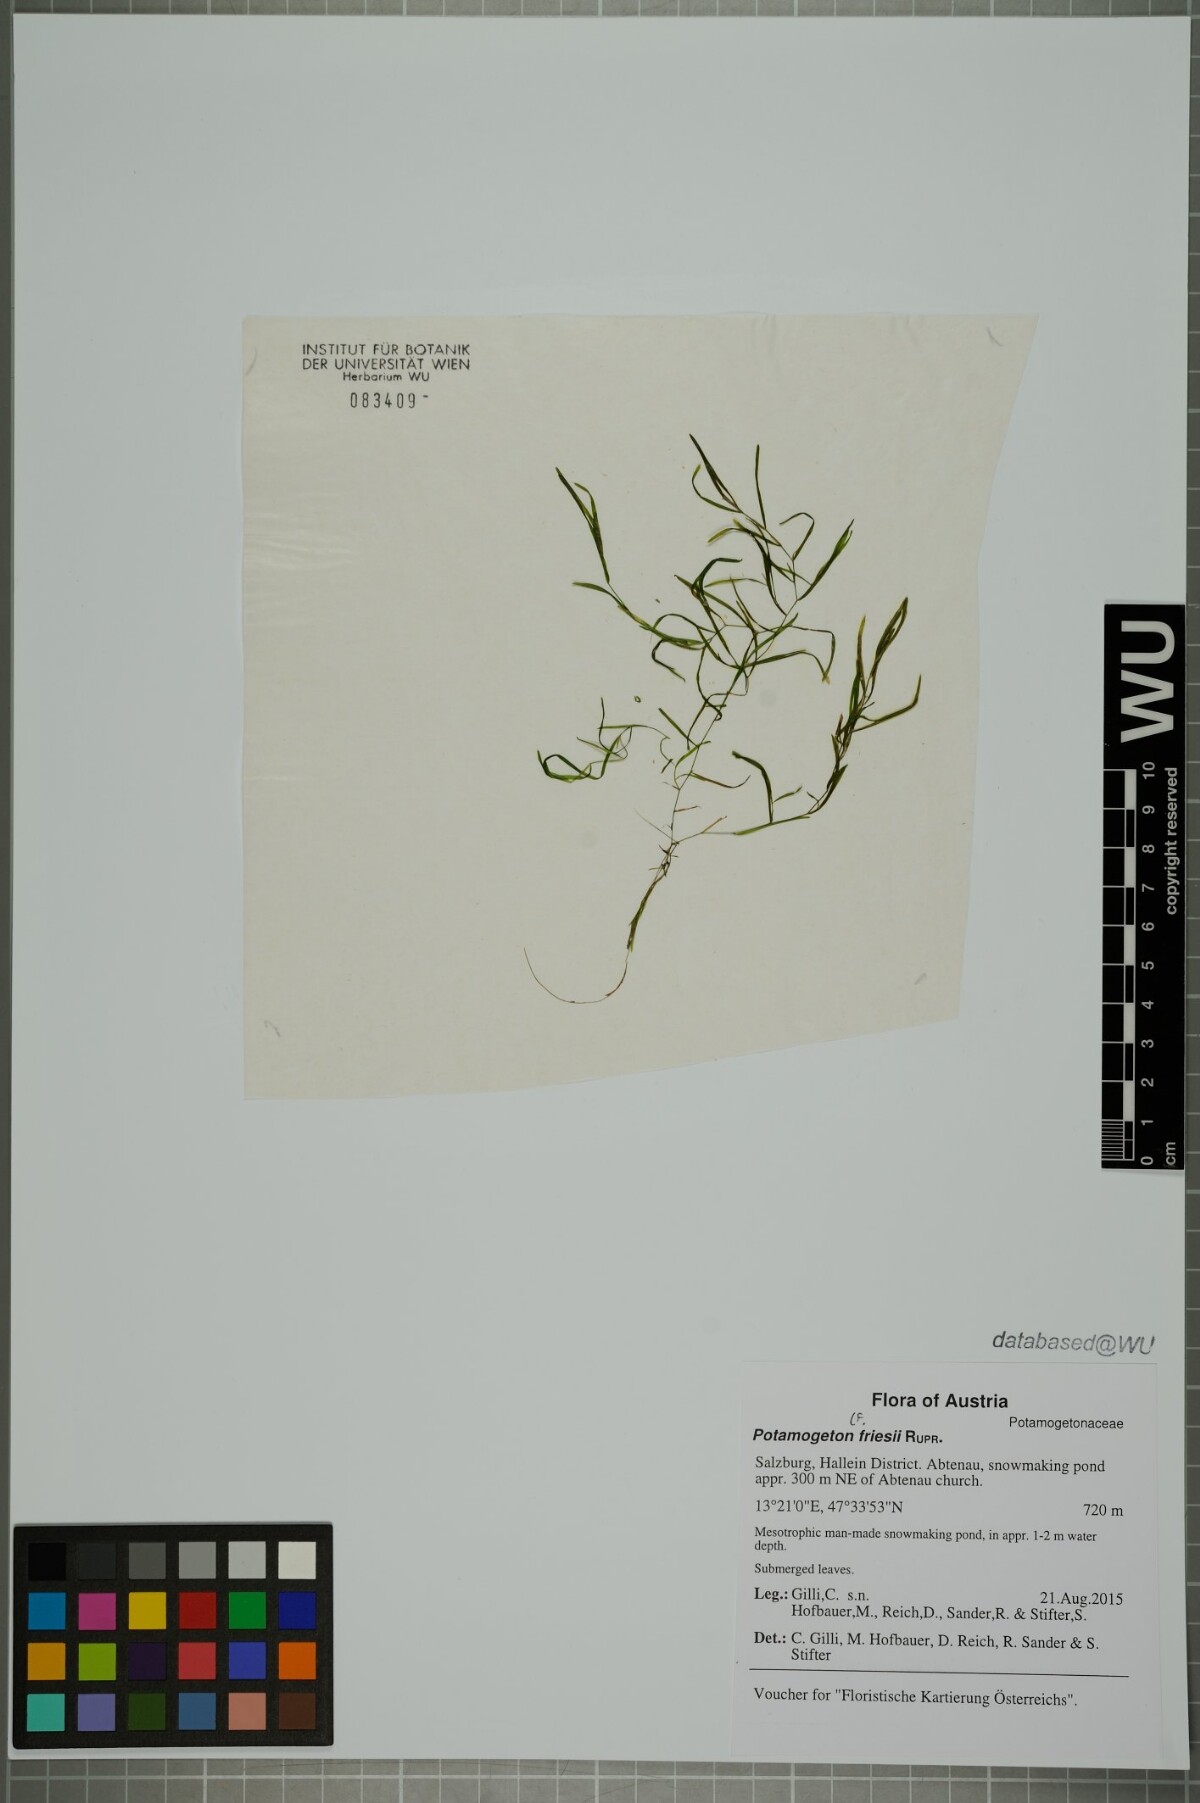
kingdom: Plantae
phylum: Tracheophyta
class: Liliopsida
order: Alismatales
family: Potamogetonaceae
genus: Potamogeton
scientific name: Potamogeton friesii
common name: Flat-stalked pondweed
